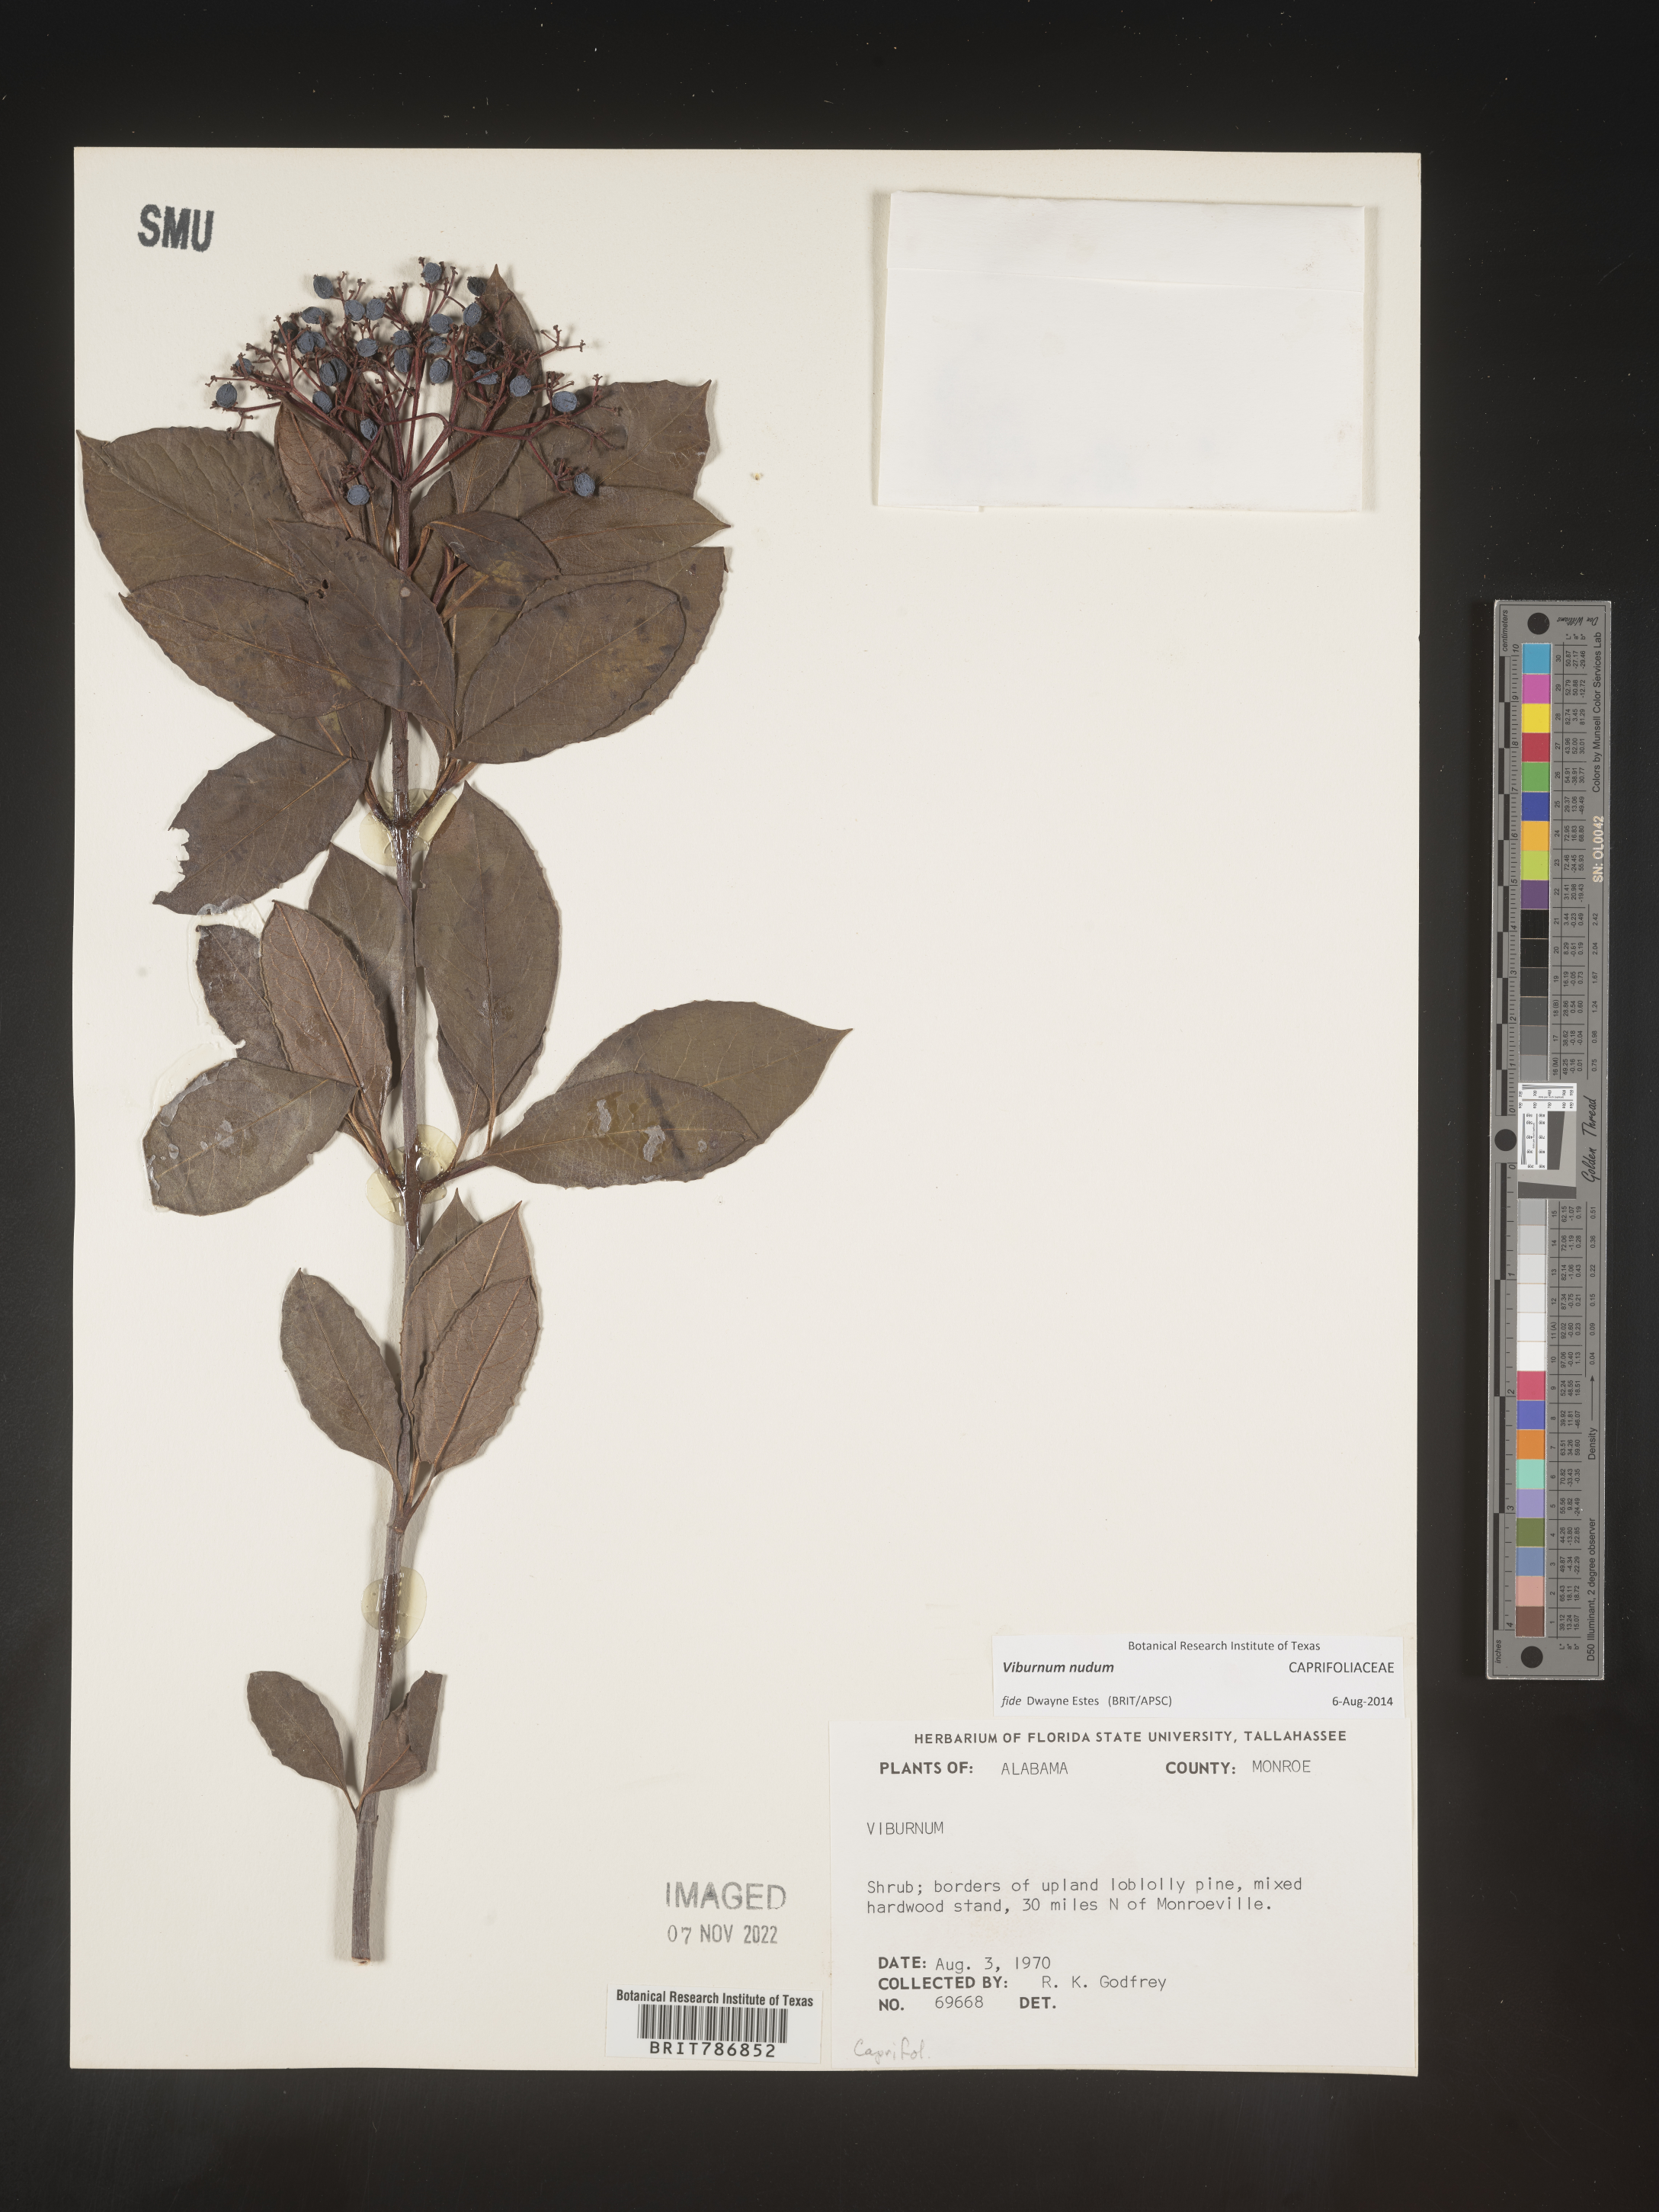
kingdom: Plantae
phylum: Tracheophyta
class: Magnoliopsida
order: Dipsacales
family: Viburnaceae
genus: Viburnum
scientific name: Viburnum nudum
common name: Possum haw
